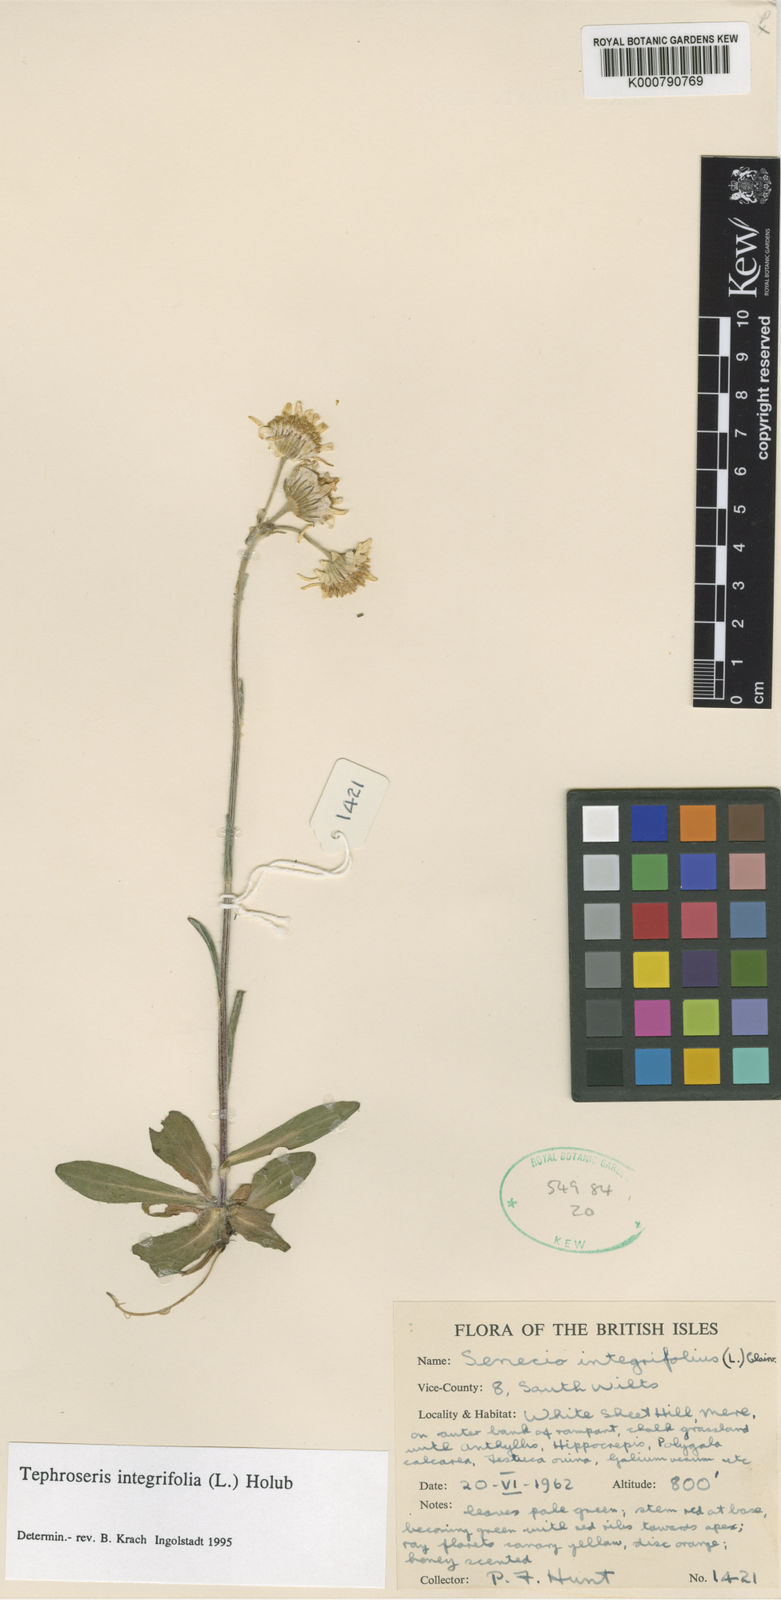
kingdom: Plantae
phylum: Tracheophyta
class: Magnoliopsida
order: Asterales
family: Asteraceae
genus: Tephroseris
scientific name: Tephroseris integrifolia
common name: Field fleawort
